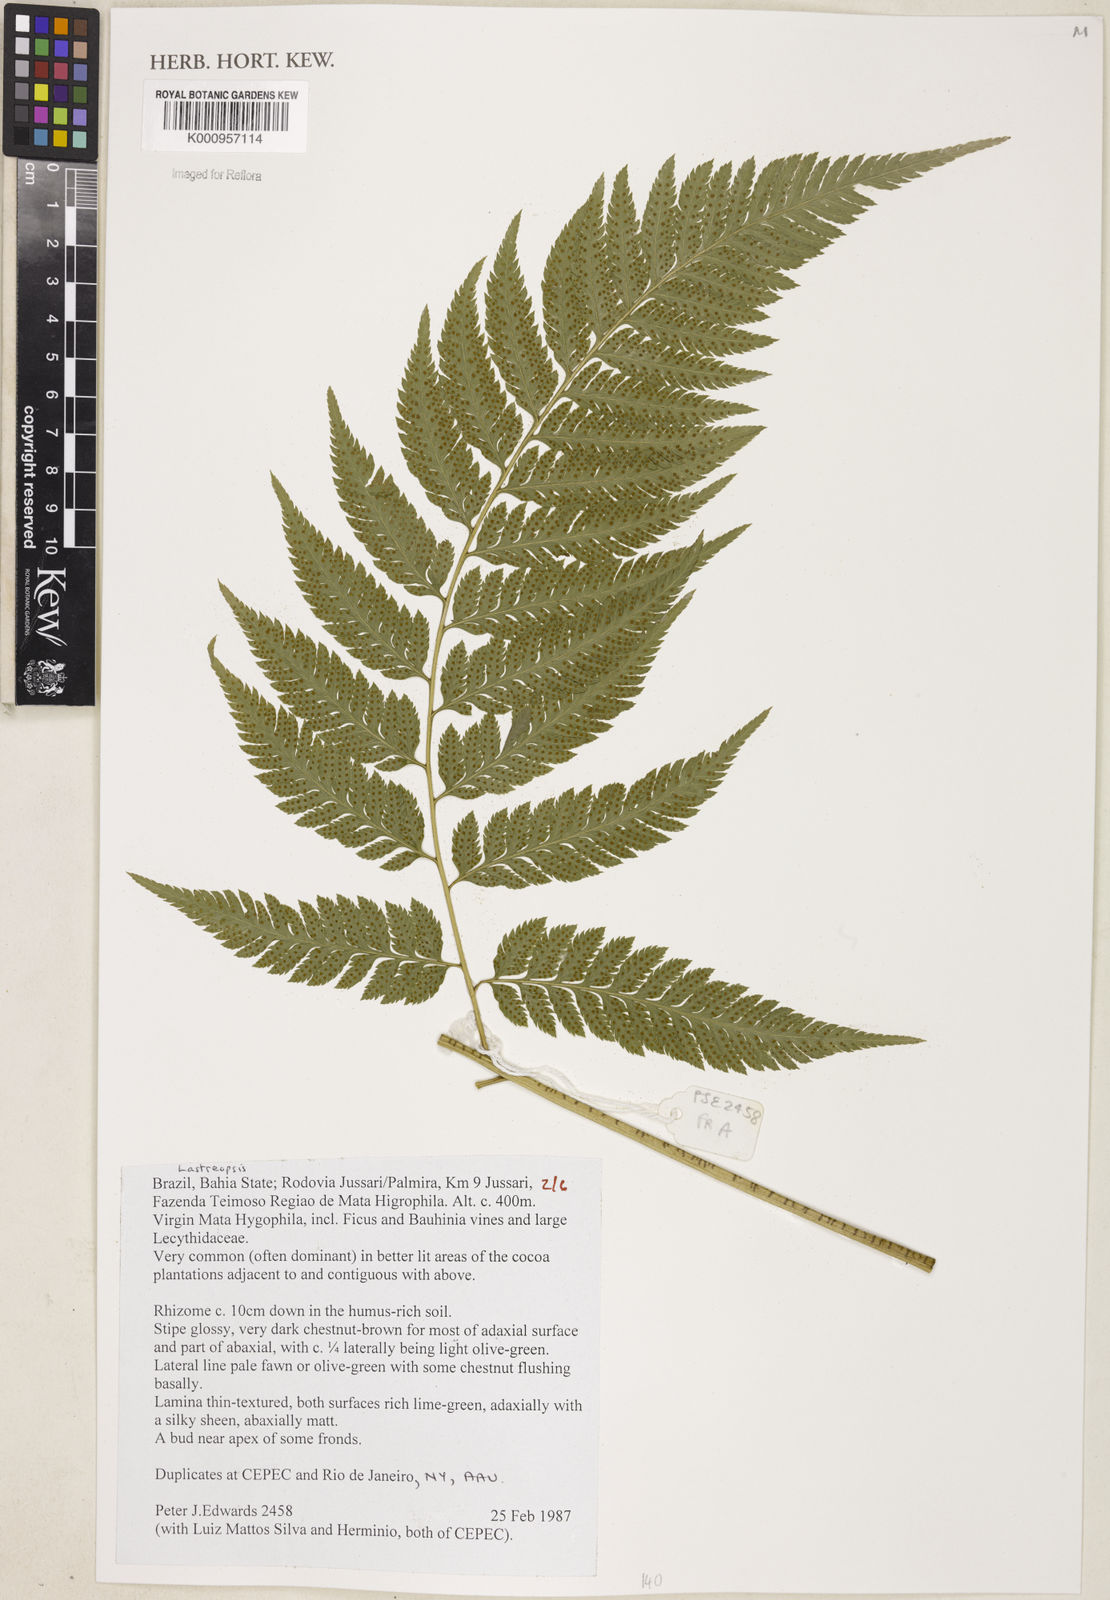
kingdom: Plantae
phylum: Tracheophyta
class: Polypodiopsida
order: Polypodiales
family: Dryopteridaceae
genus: Lastreopsis
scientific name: Lastreopsis
